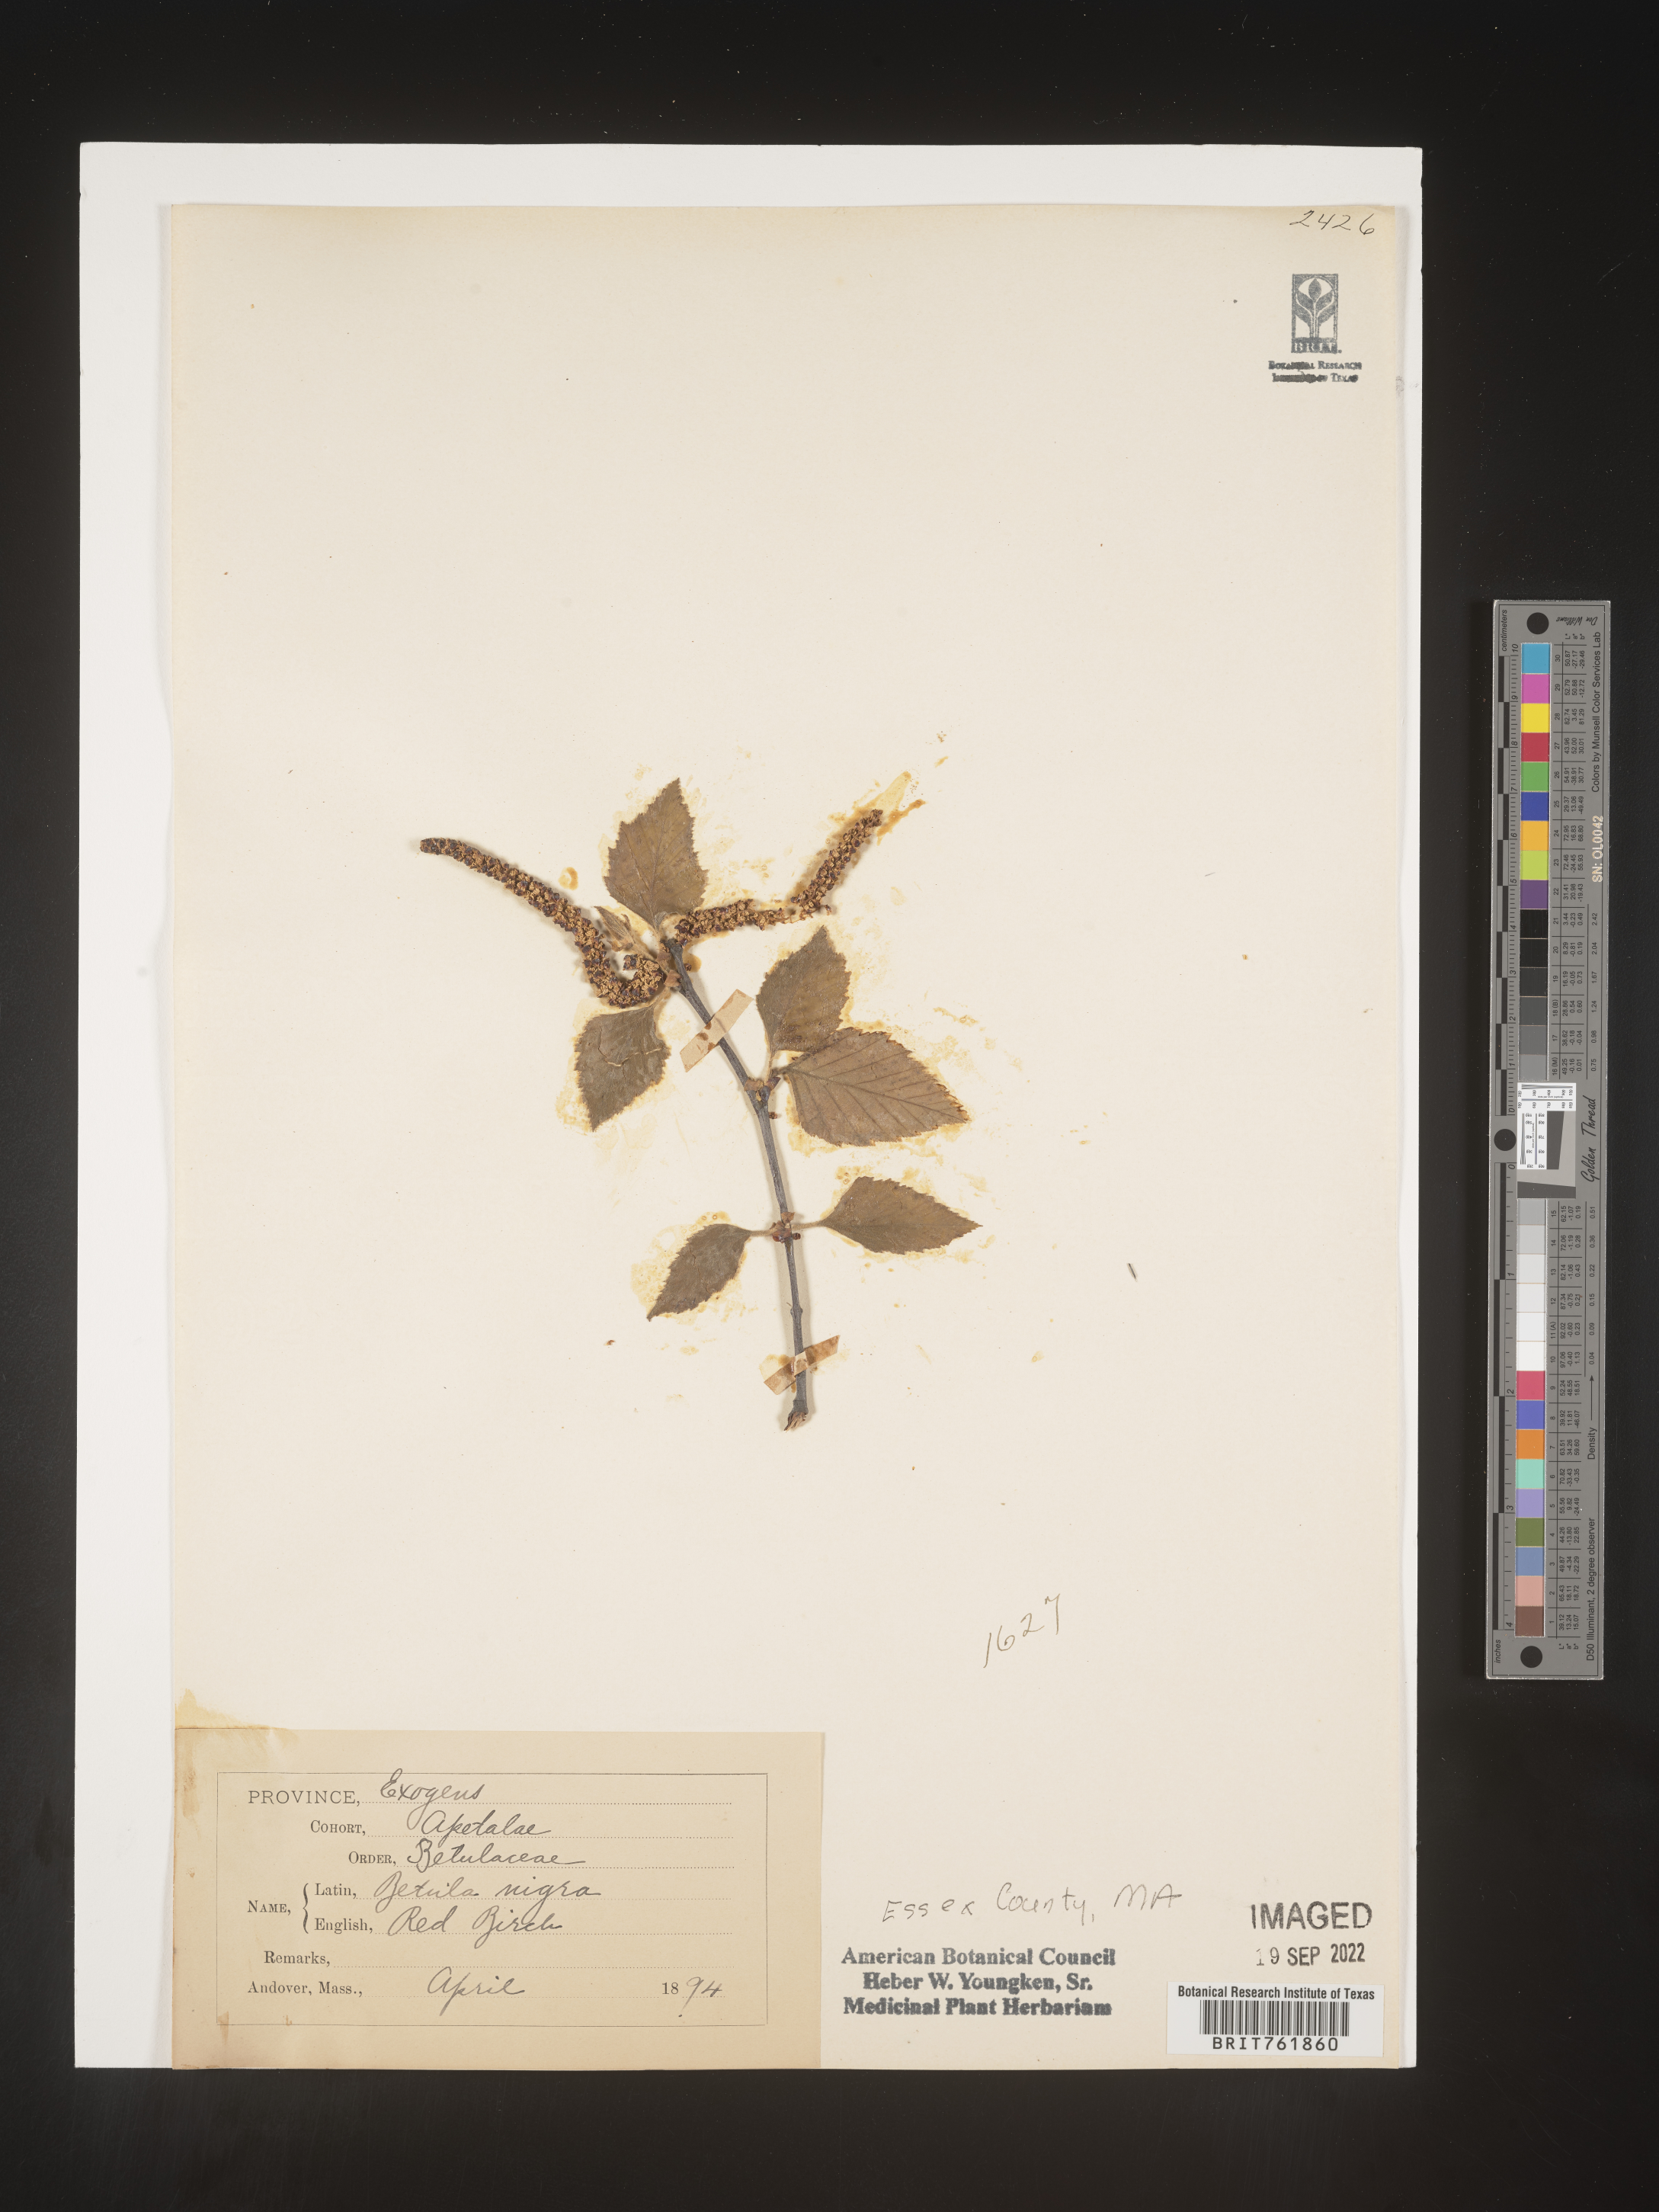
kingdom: Plantae
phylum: Tracheophyta
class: Magnoliopsida
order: Fagales
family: Betulaceae
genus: Betula
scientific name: Betula nigra
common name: Black birch
